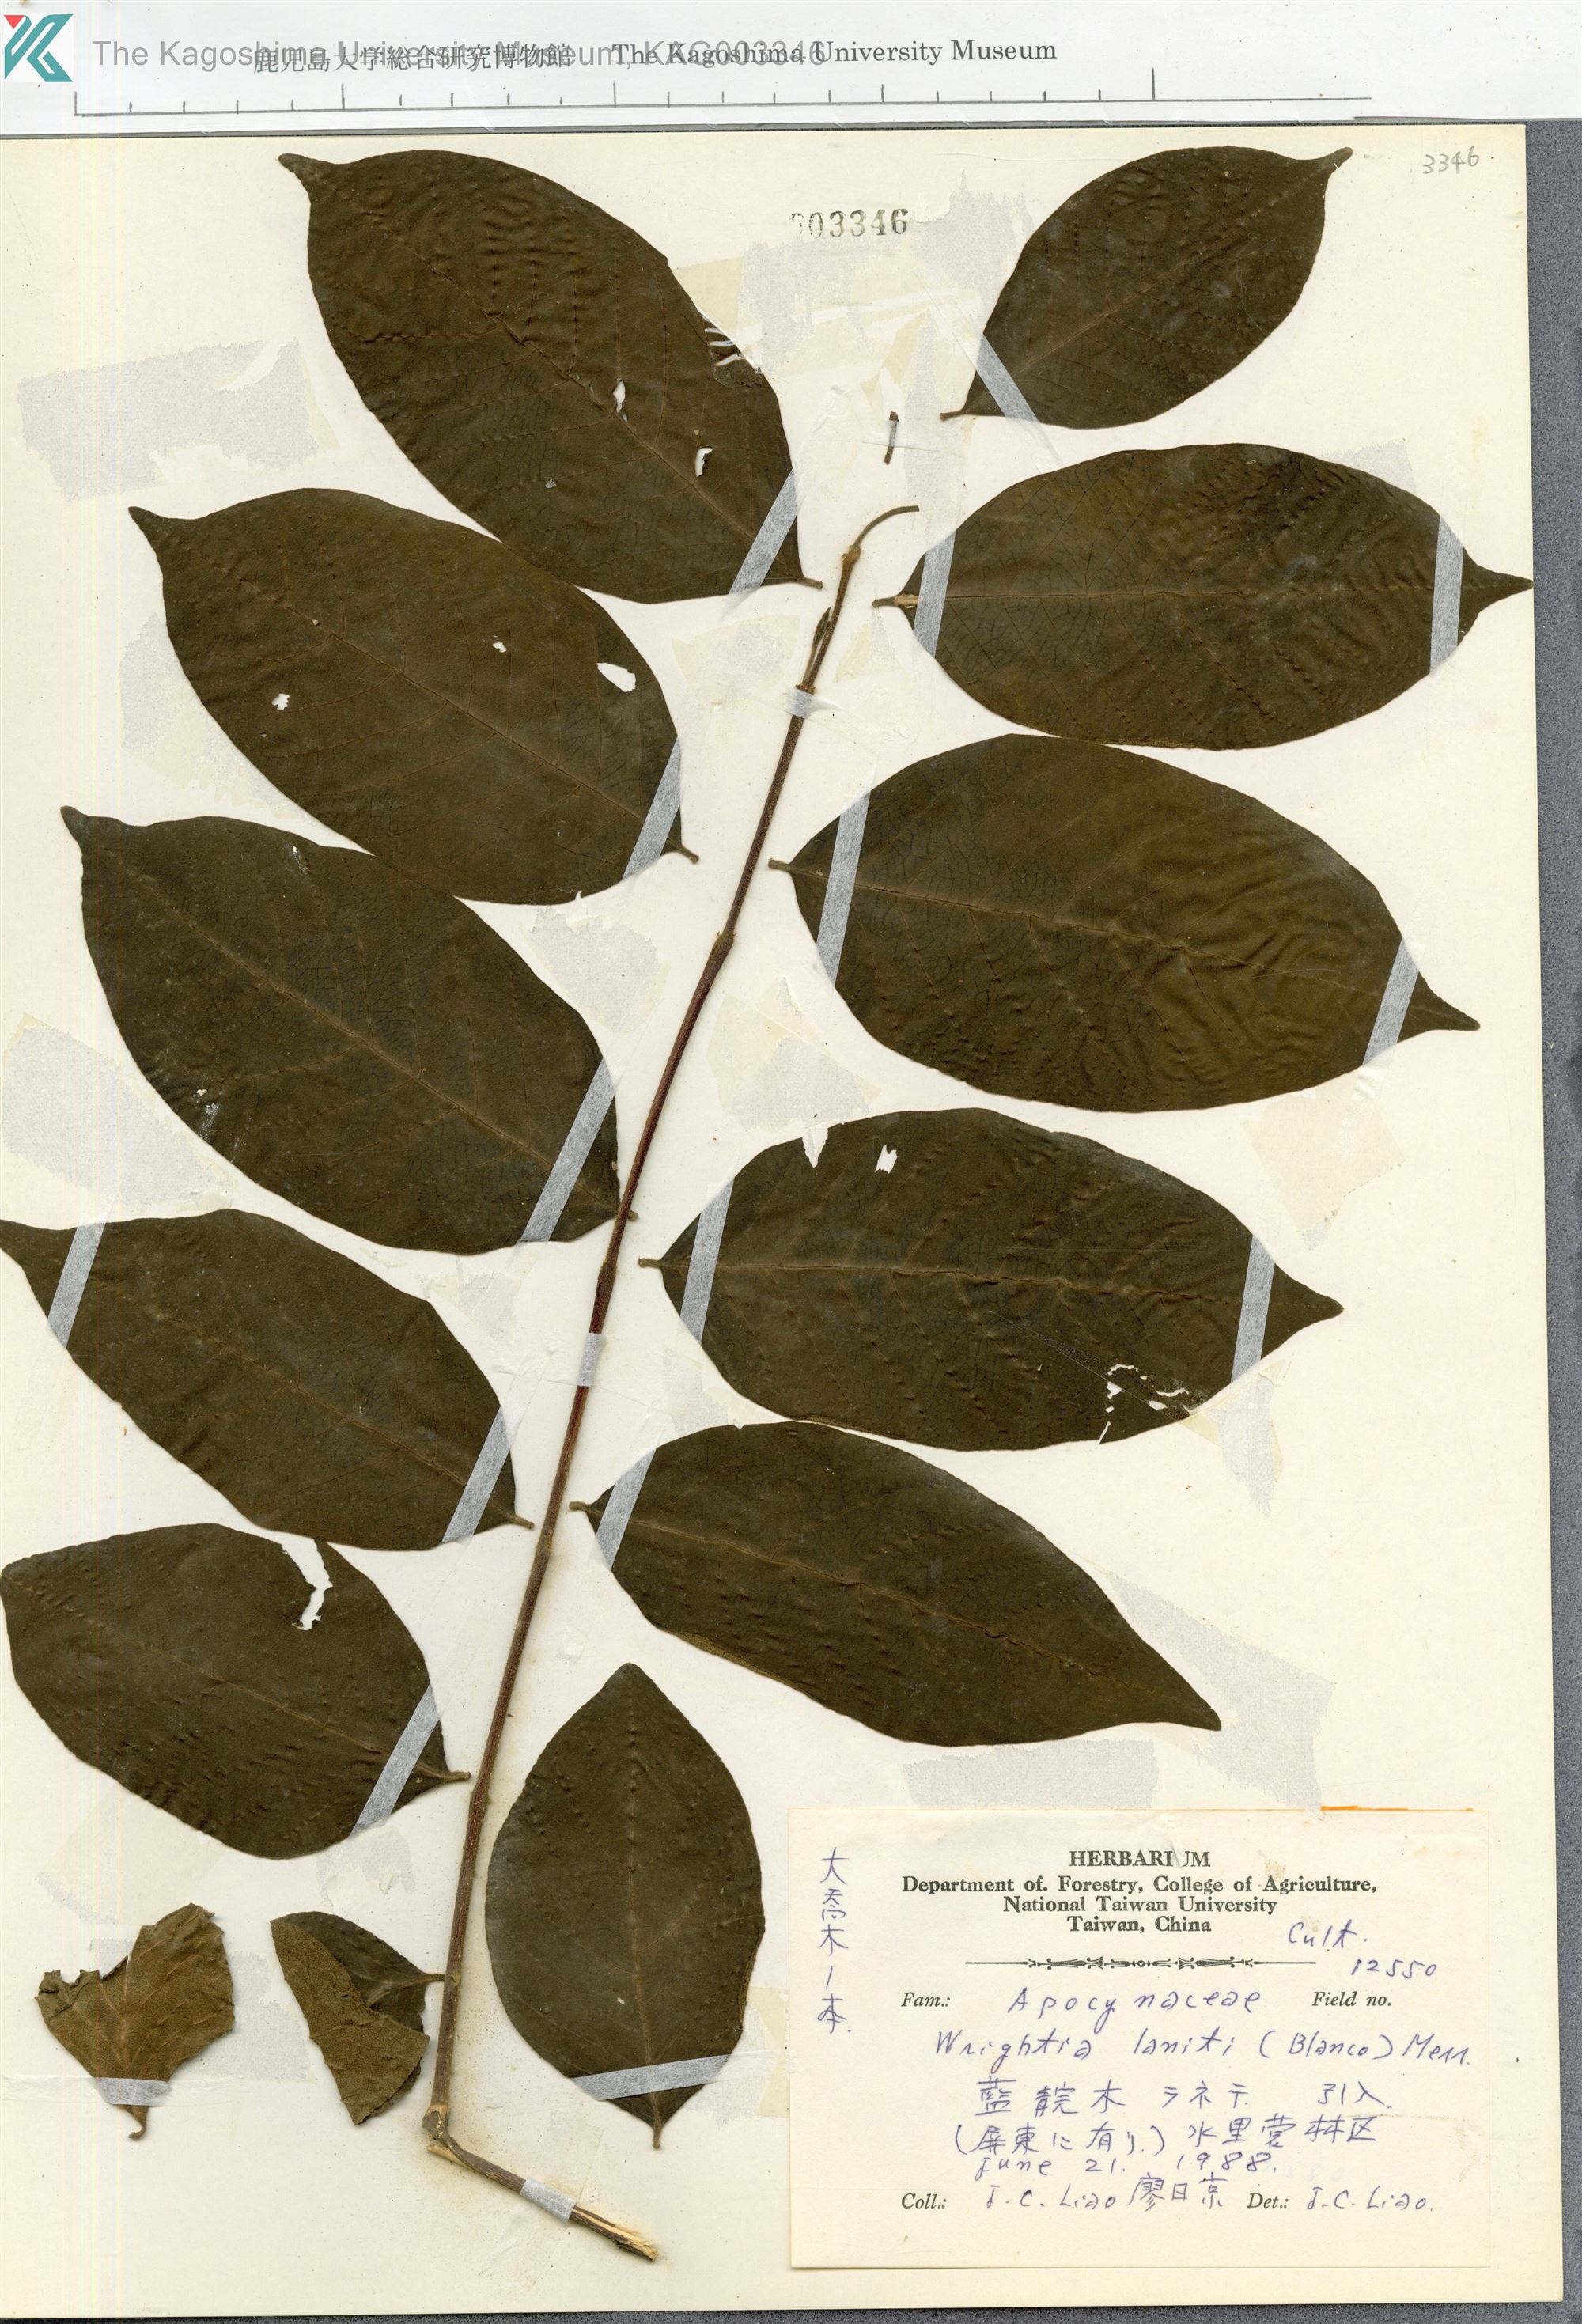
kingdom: Plantae
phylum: Tracheophyta
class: Magnoliopsida
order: Gentianales
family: Apocynaceae
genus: Wrightia
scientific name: Wrightia pubescens
